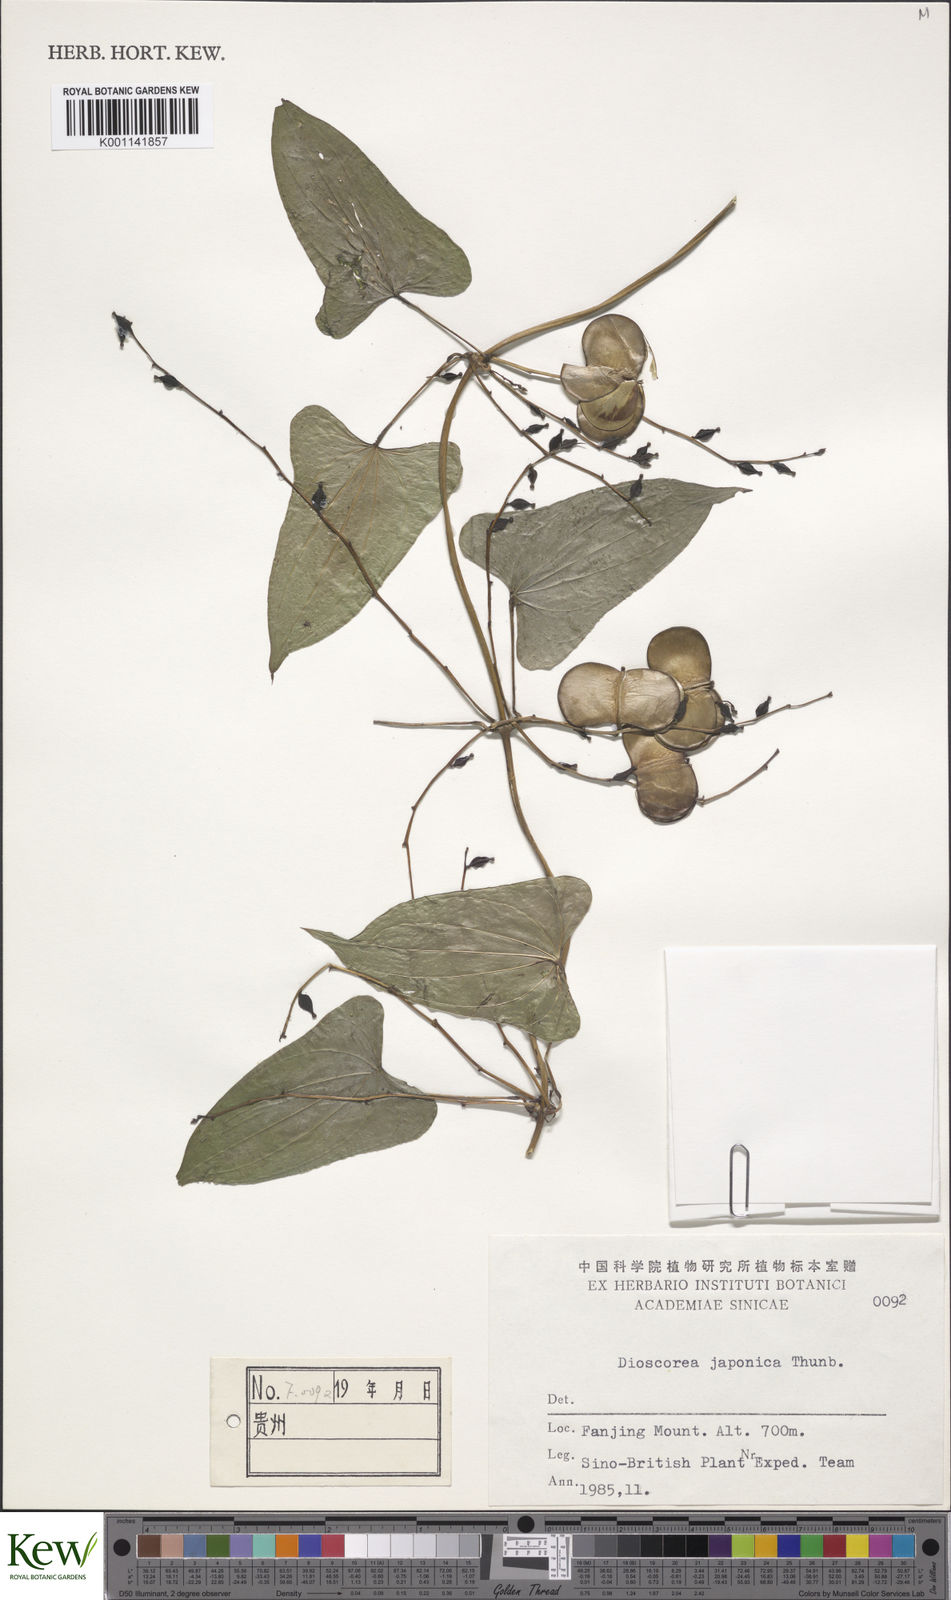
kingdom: Plantae
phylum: Tracheophyta
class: Liliopsida
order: Dioscoreales
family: Dioscoreaceae
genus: Dioscorea
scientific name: Dioscorea japonica
